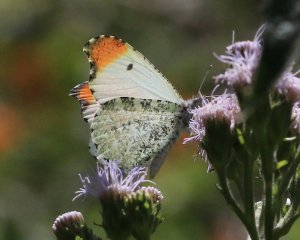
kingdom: Animalia
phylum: Arthropoda
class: Insecta
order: Lepidoptera
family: Pieridae
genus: Anthocharis
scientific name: Anthocharis midea
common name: Falcate Orangetip
